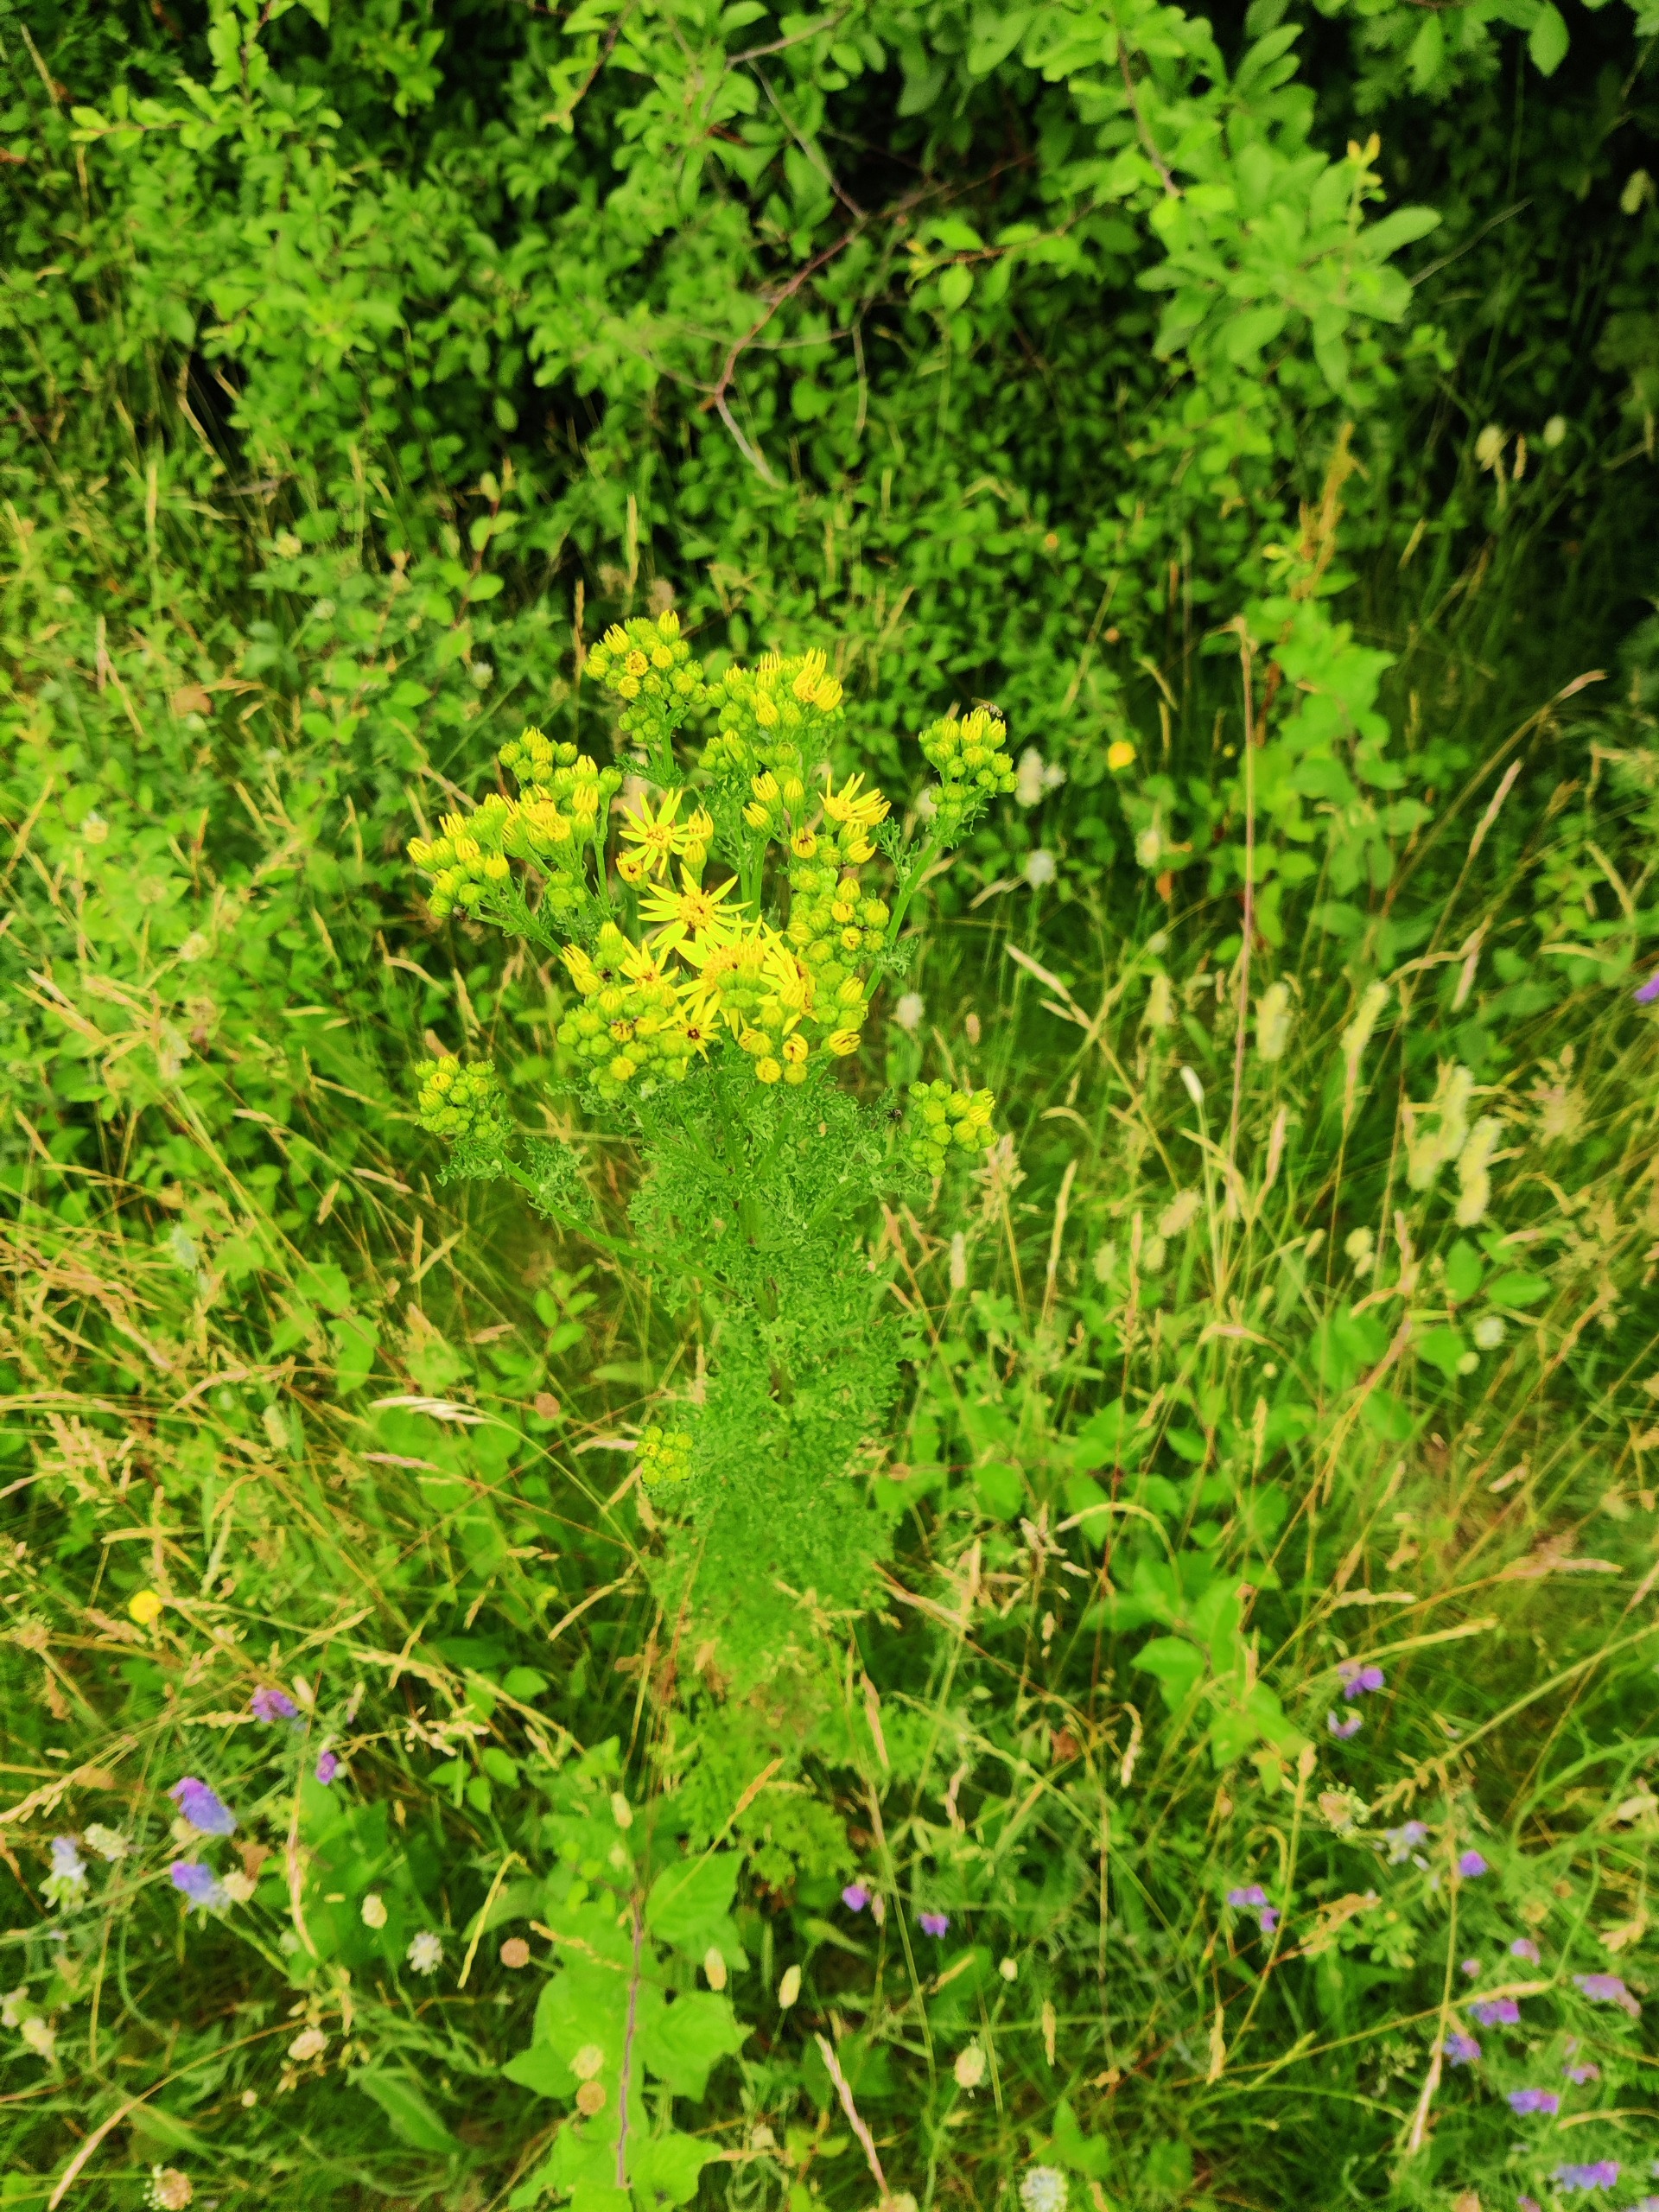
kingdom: Plantae
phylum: Tracheophyta
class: Magnoliopsida
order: Asterales
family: Asteraceae
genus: Jacobaea
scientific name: Jacobaea vulgaris
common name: Eng-brandbæger
